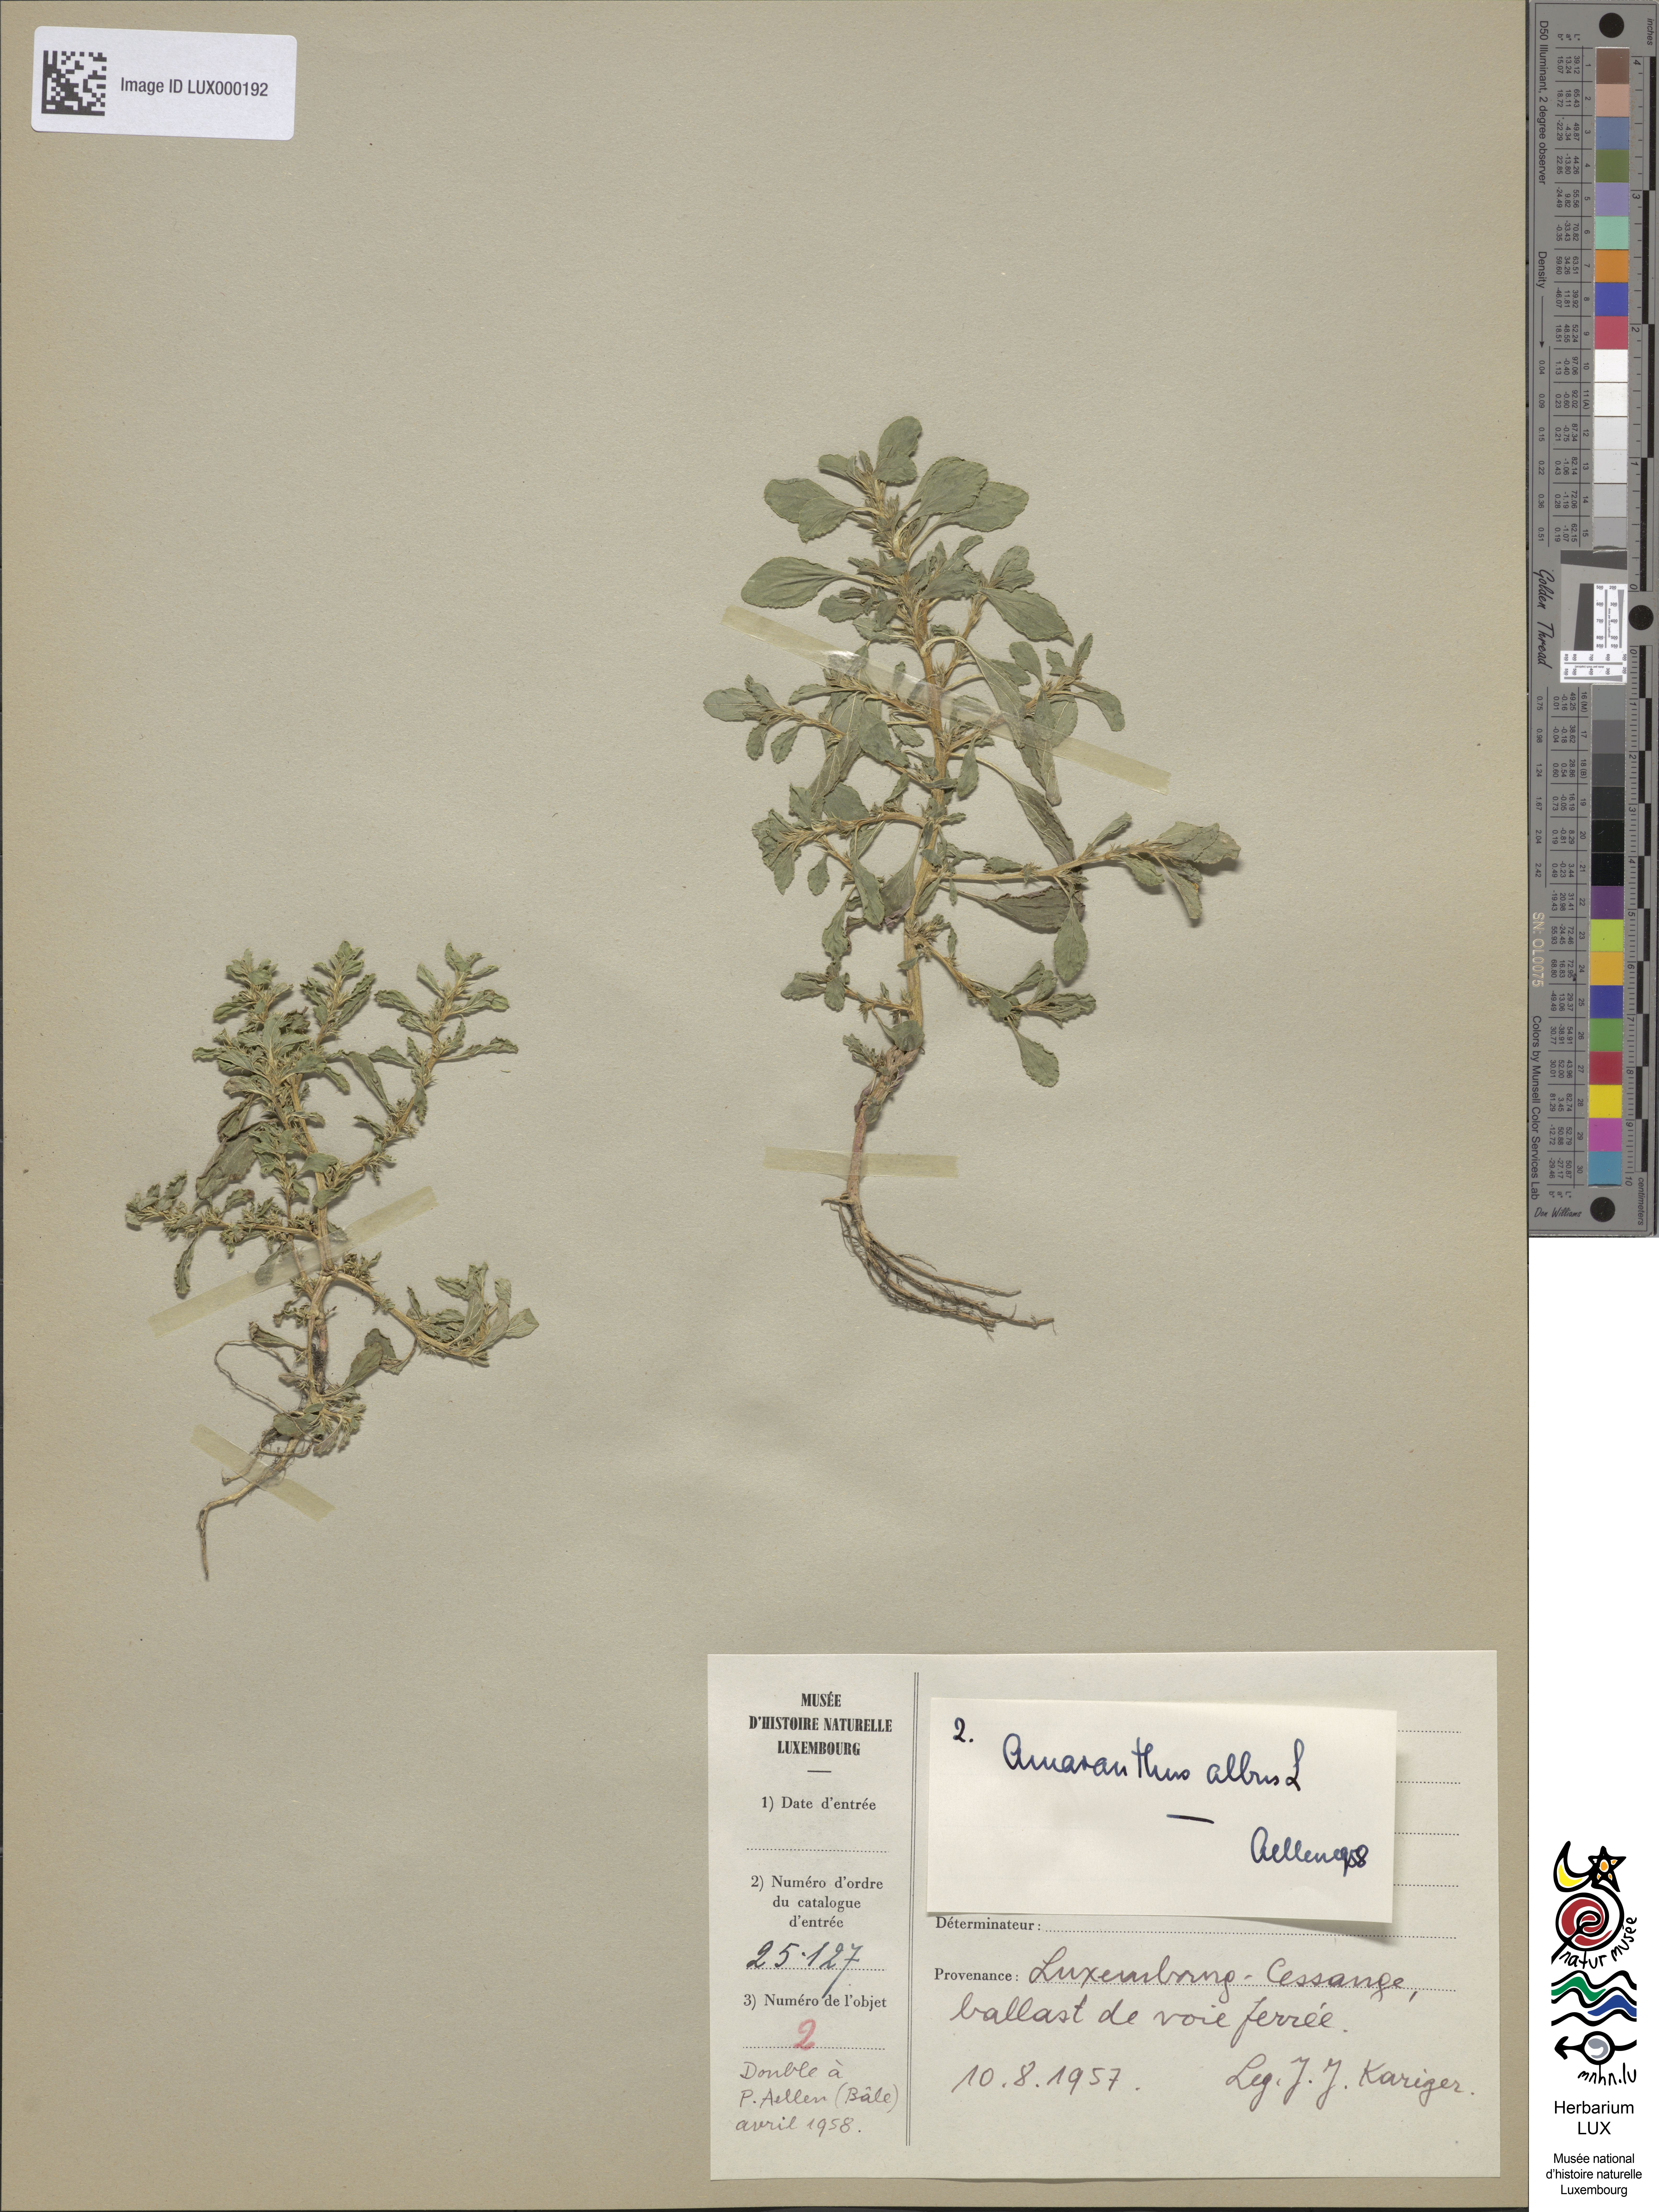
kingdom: Plantae
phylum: Tracheophyta
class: Magnoliopsida
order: Caryophyllales
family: Amaranthaceae
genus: Amaranthus
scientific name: Amaranthus albus
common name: White pigweed
